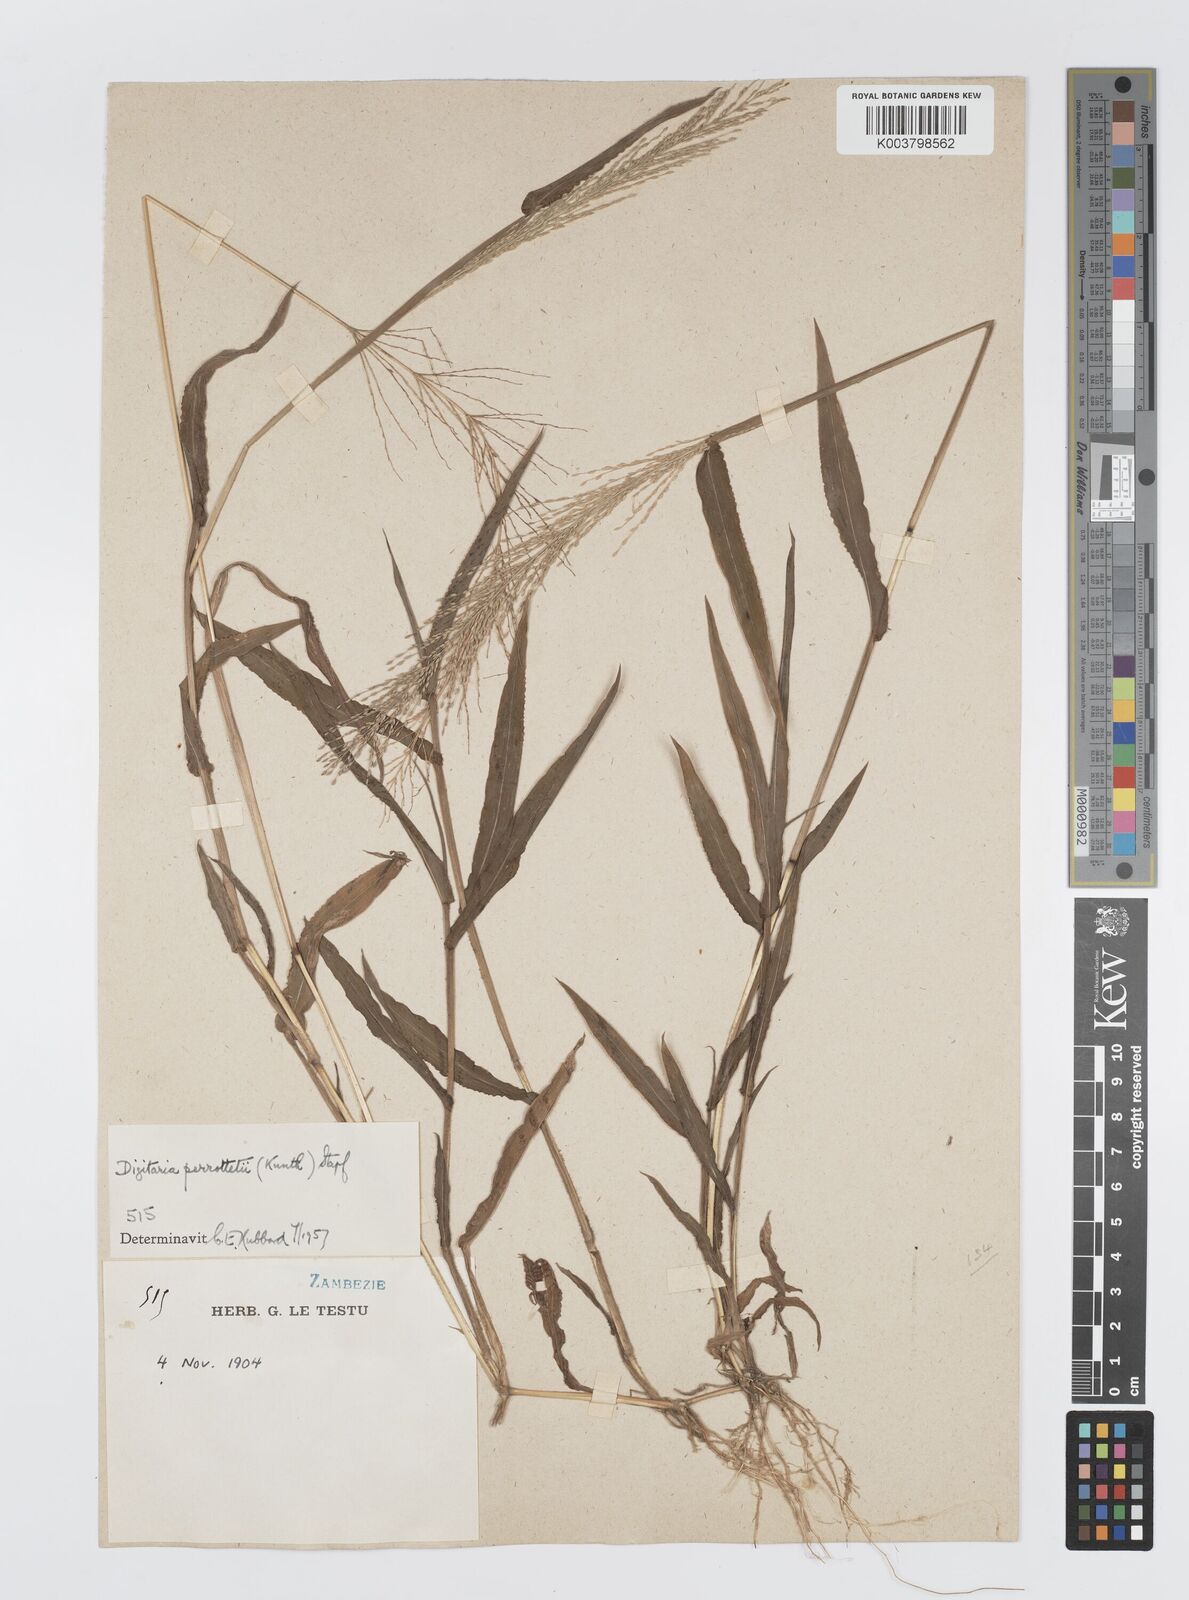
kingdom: Plantae
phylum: Tracheophyta
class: Liliopsida
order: Poales
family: Poaceae
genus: Digitaria
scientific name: Digitaria perrottetii
